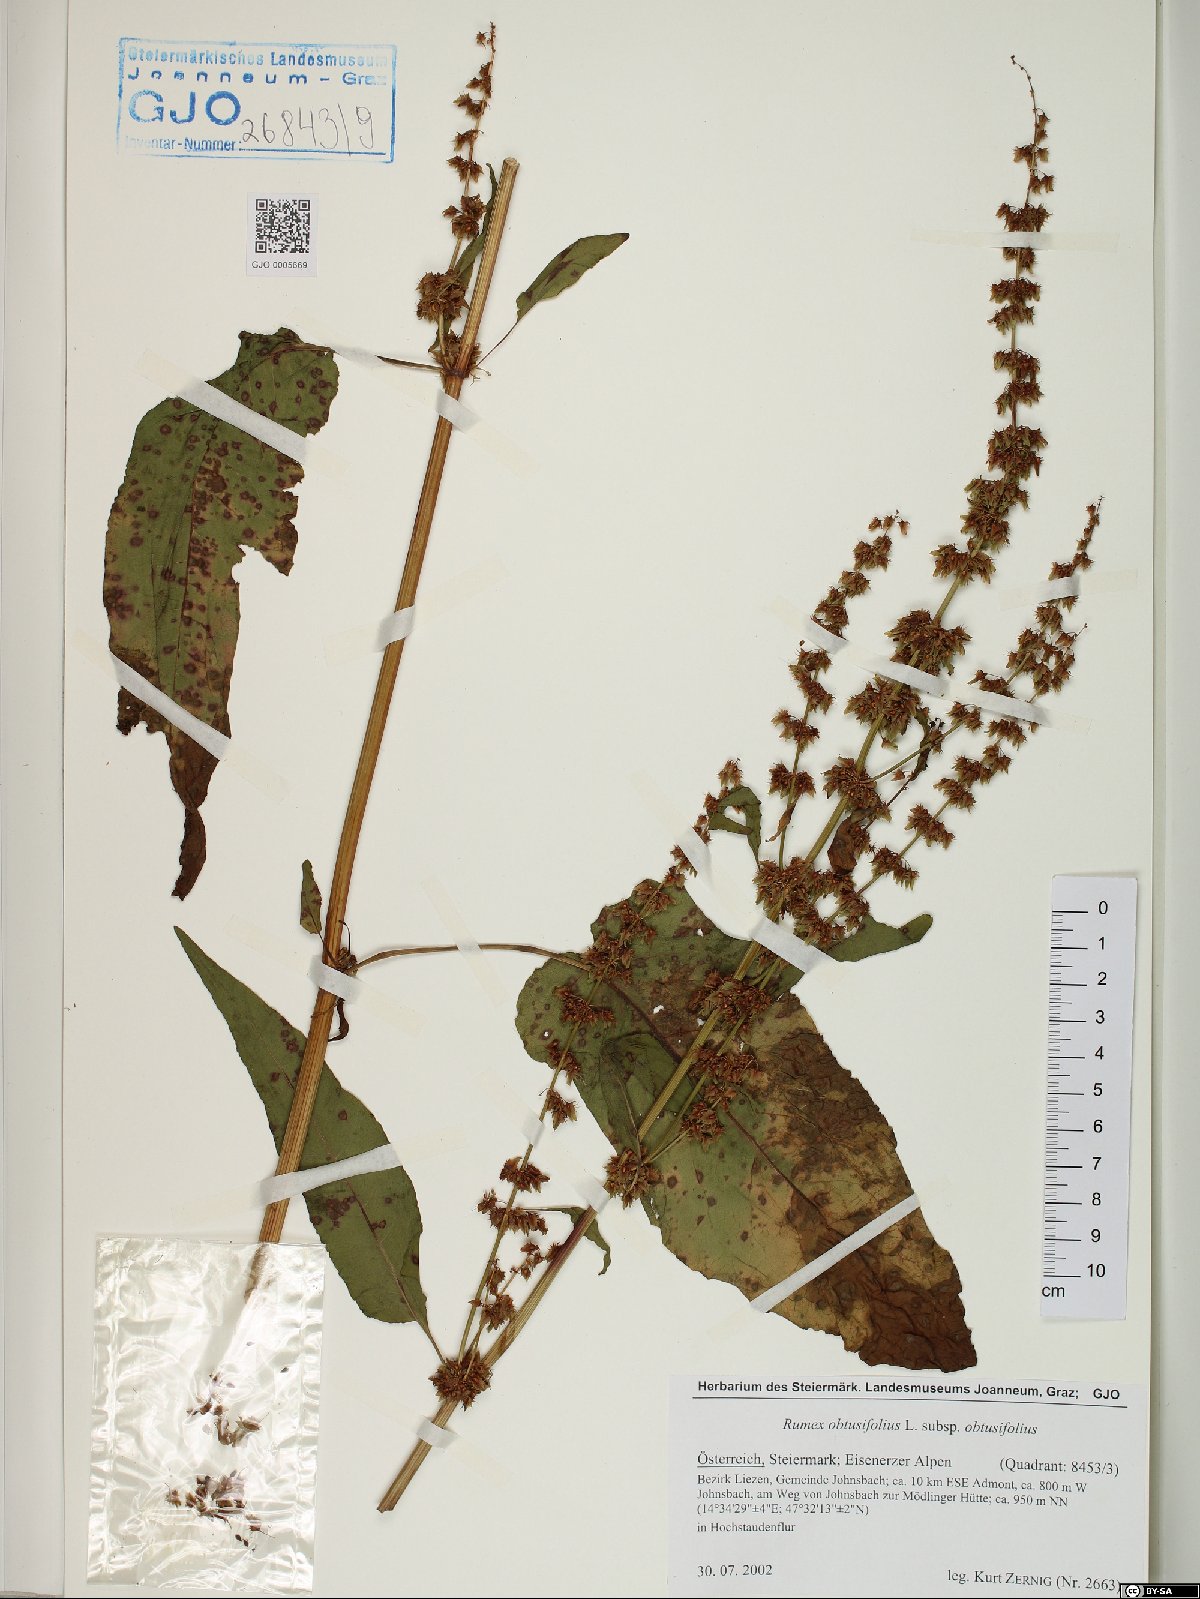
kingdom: Plantae
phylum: Tracheophyta
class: Magnoliopsida
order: Caryophyllales
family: Polygonaceae
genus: Rumex
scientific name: Rumex obtusifolius
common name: Bitter dock
